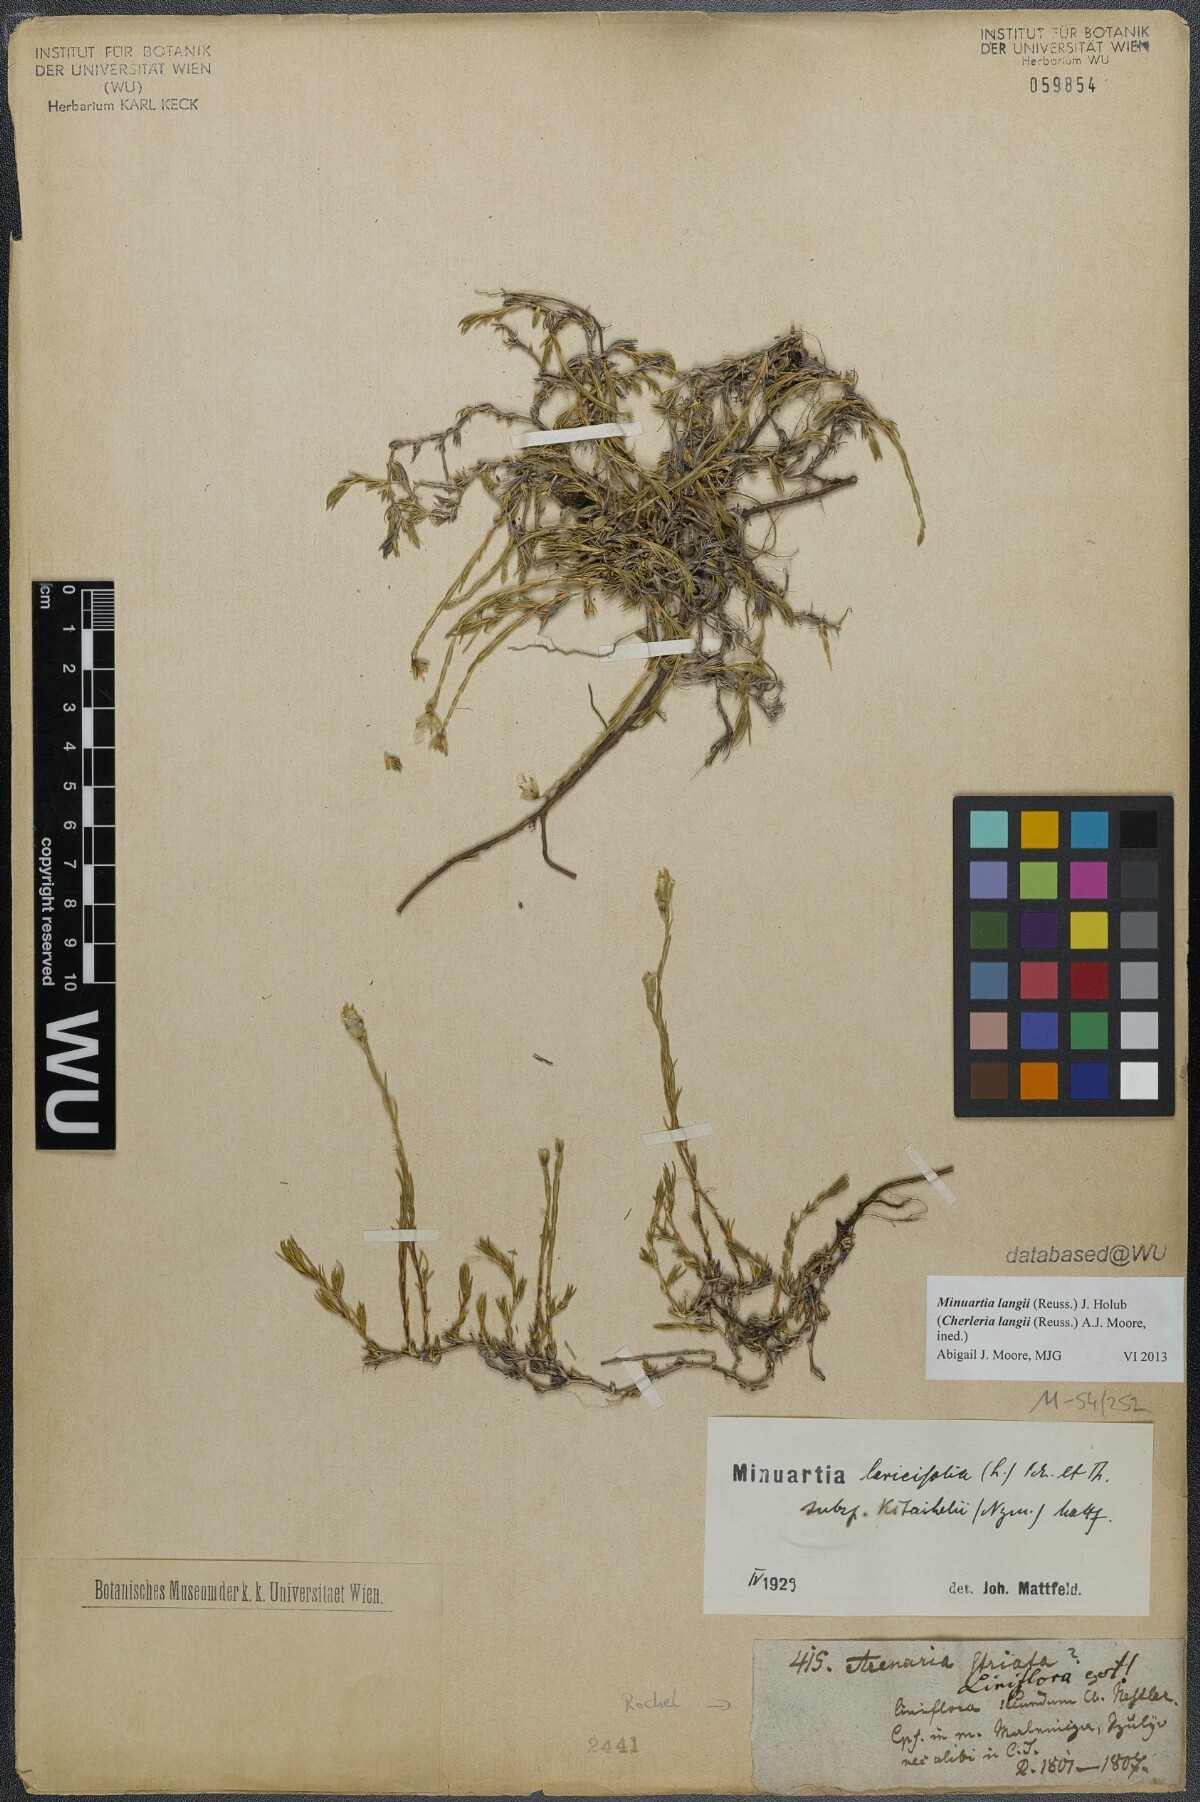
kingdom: Plantae
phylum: Tracheophyta
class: Magnoliopsida
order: Caryophyllales
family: Caryophyllaceae
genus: Cherleria
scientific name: Cherleria langii
